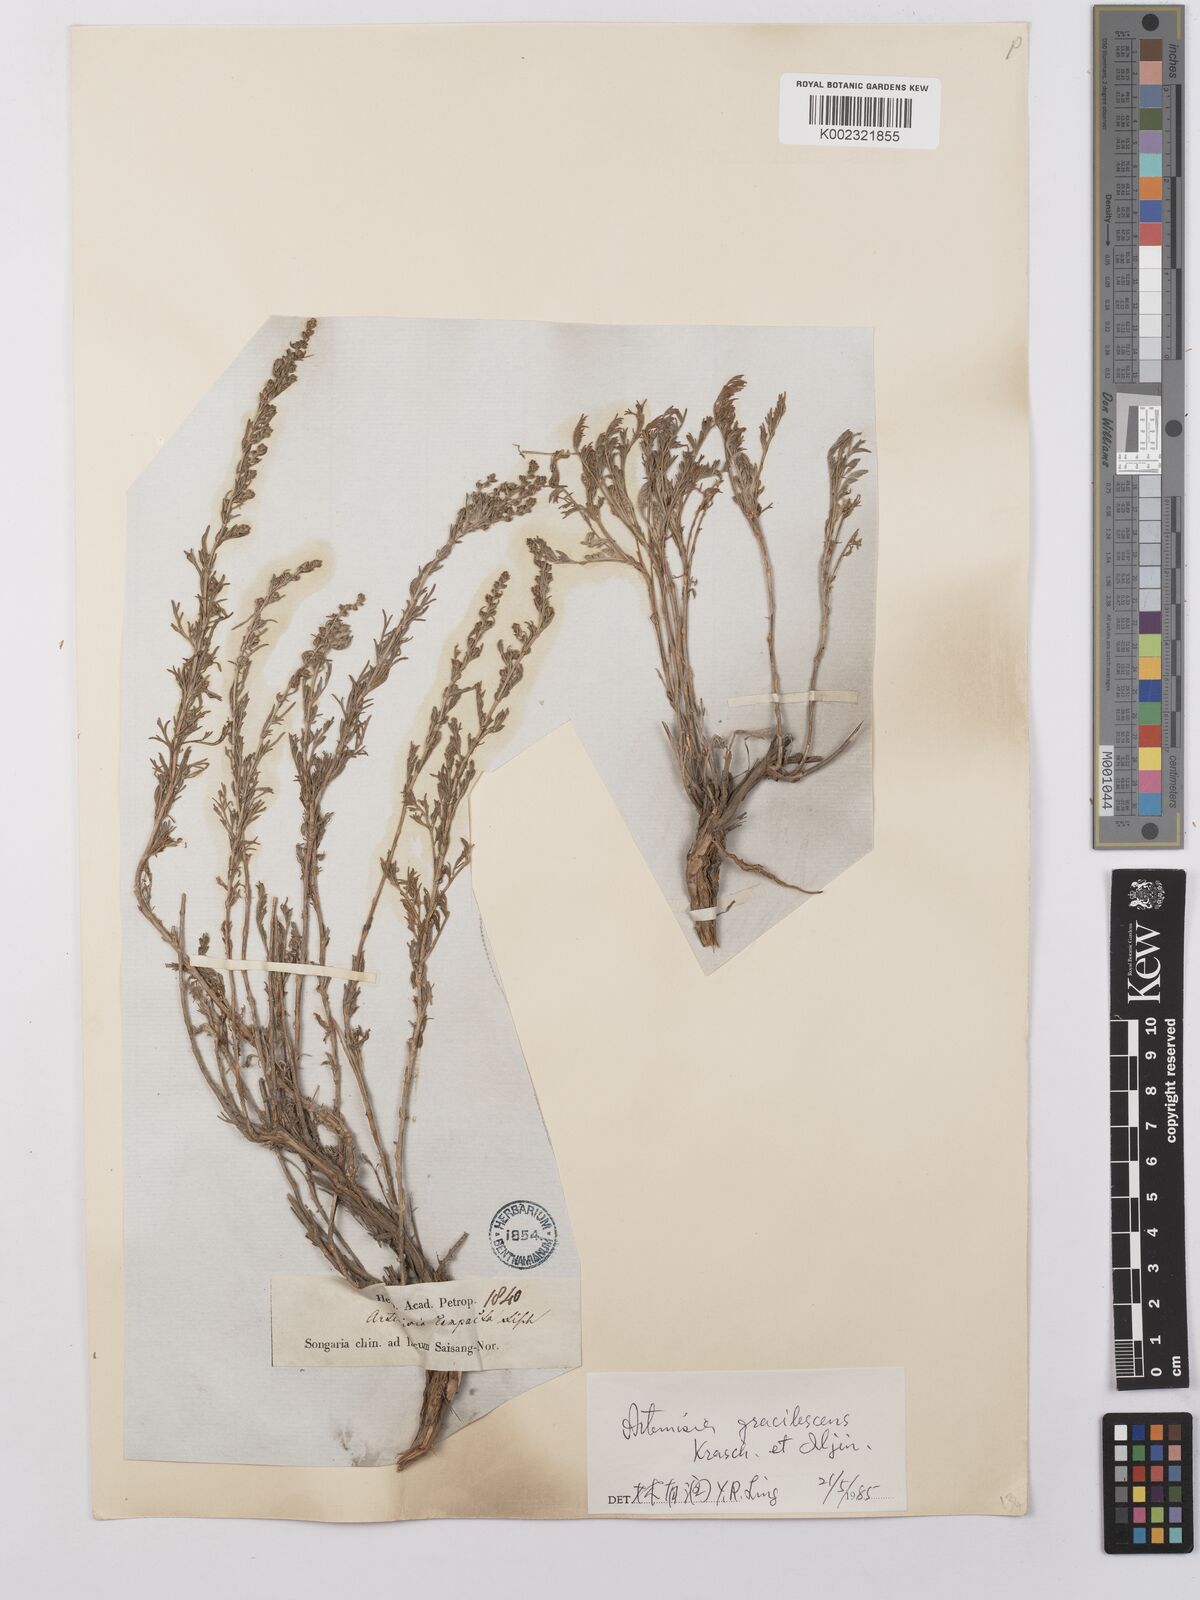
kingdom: Plantae
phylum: Tracheophyta
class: Magnoliopsida
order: Asterales
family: Asteraceae
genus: Artemisia
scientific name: Artemisia gracilescens
